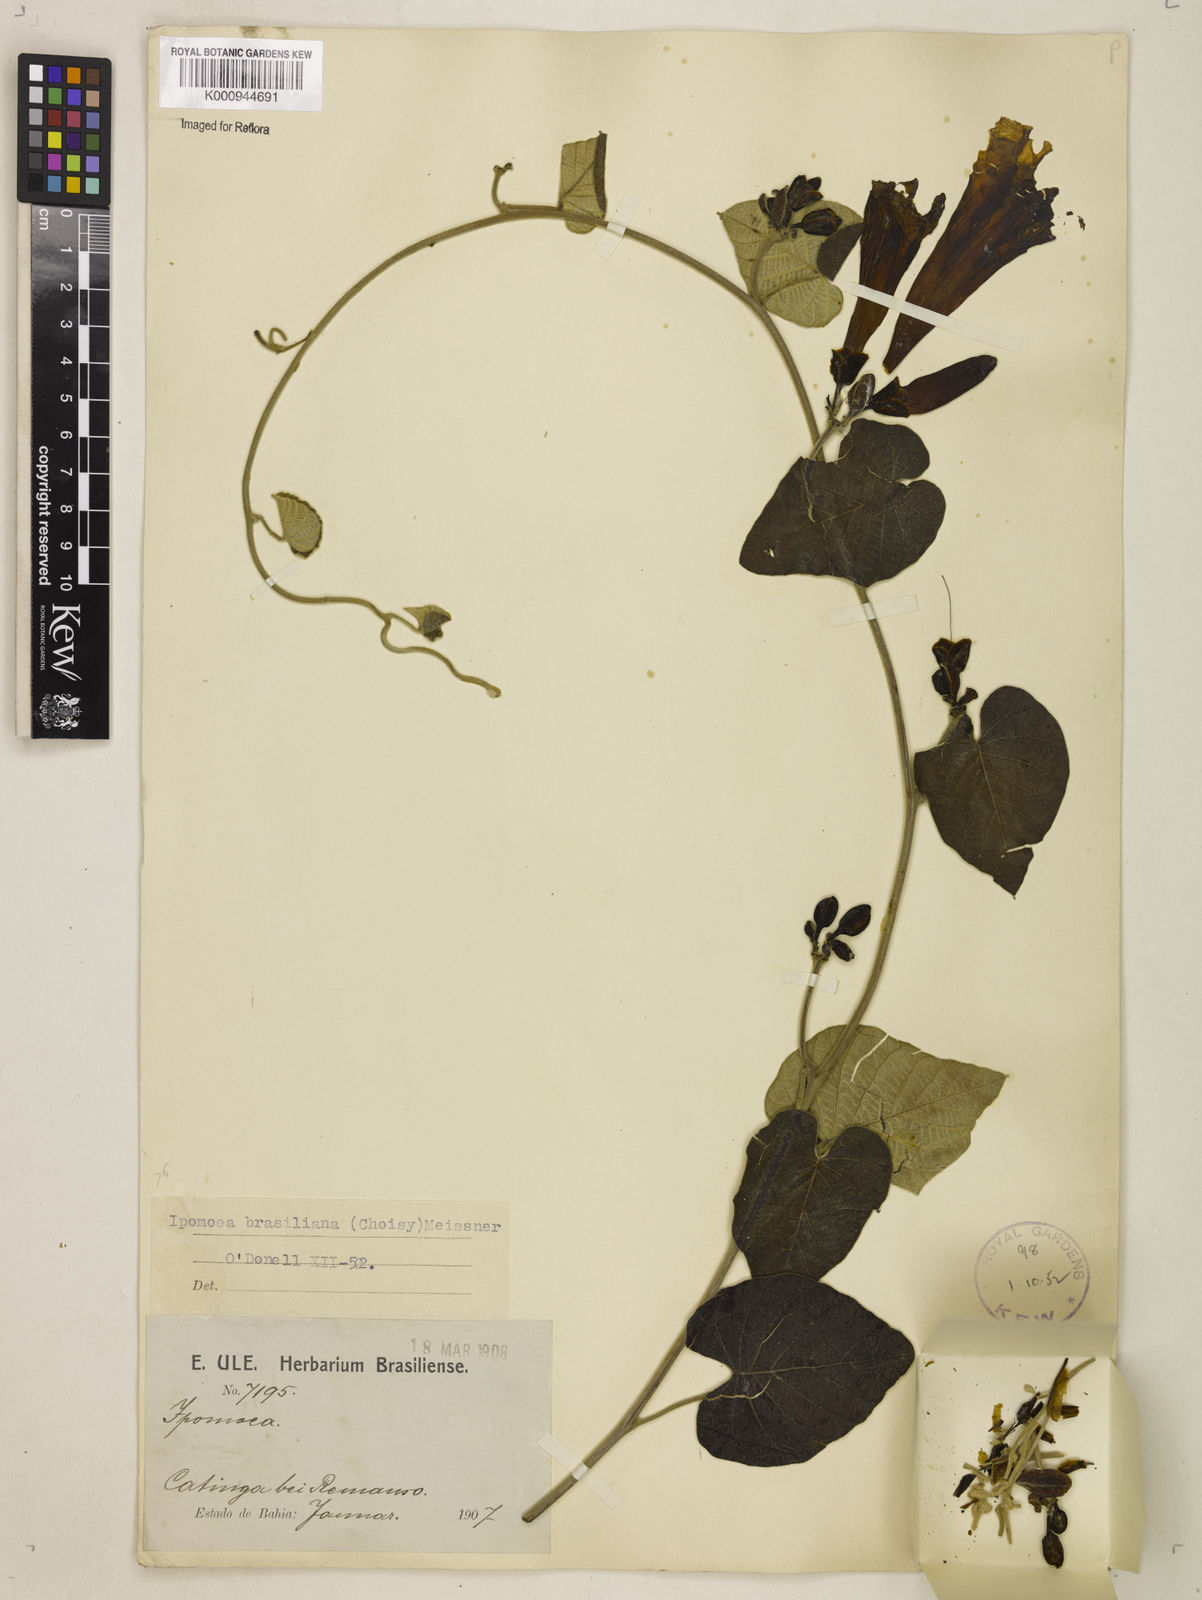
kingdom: Plantae
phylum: Tracheophyta
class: Magnoliopsida
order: Solanales
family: Convolvulaceae
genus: Ipomoea
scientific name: Ipomoea brasiliana
